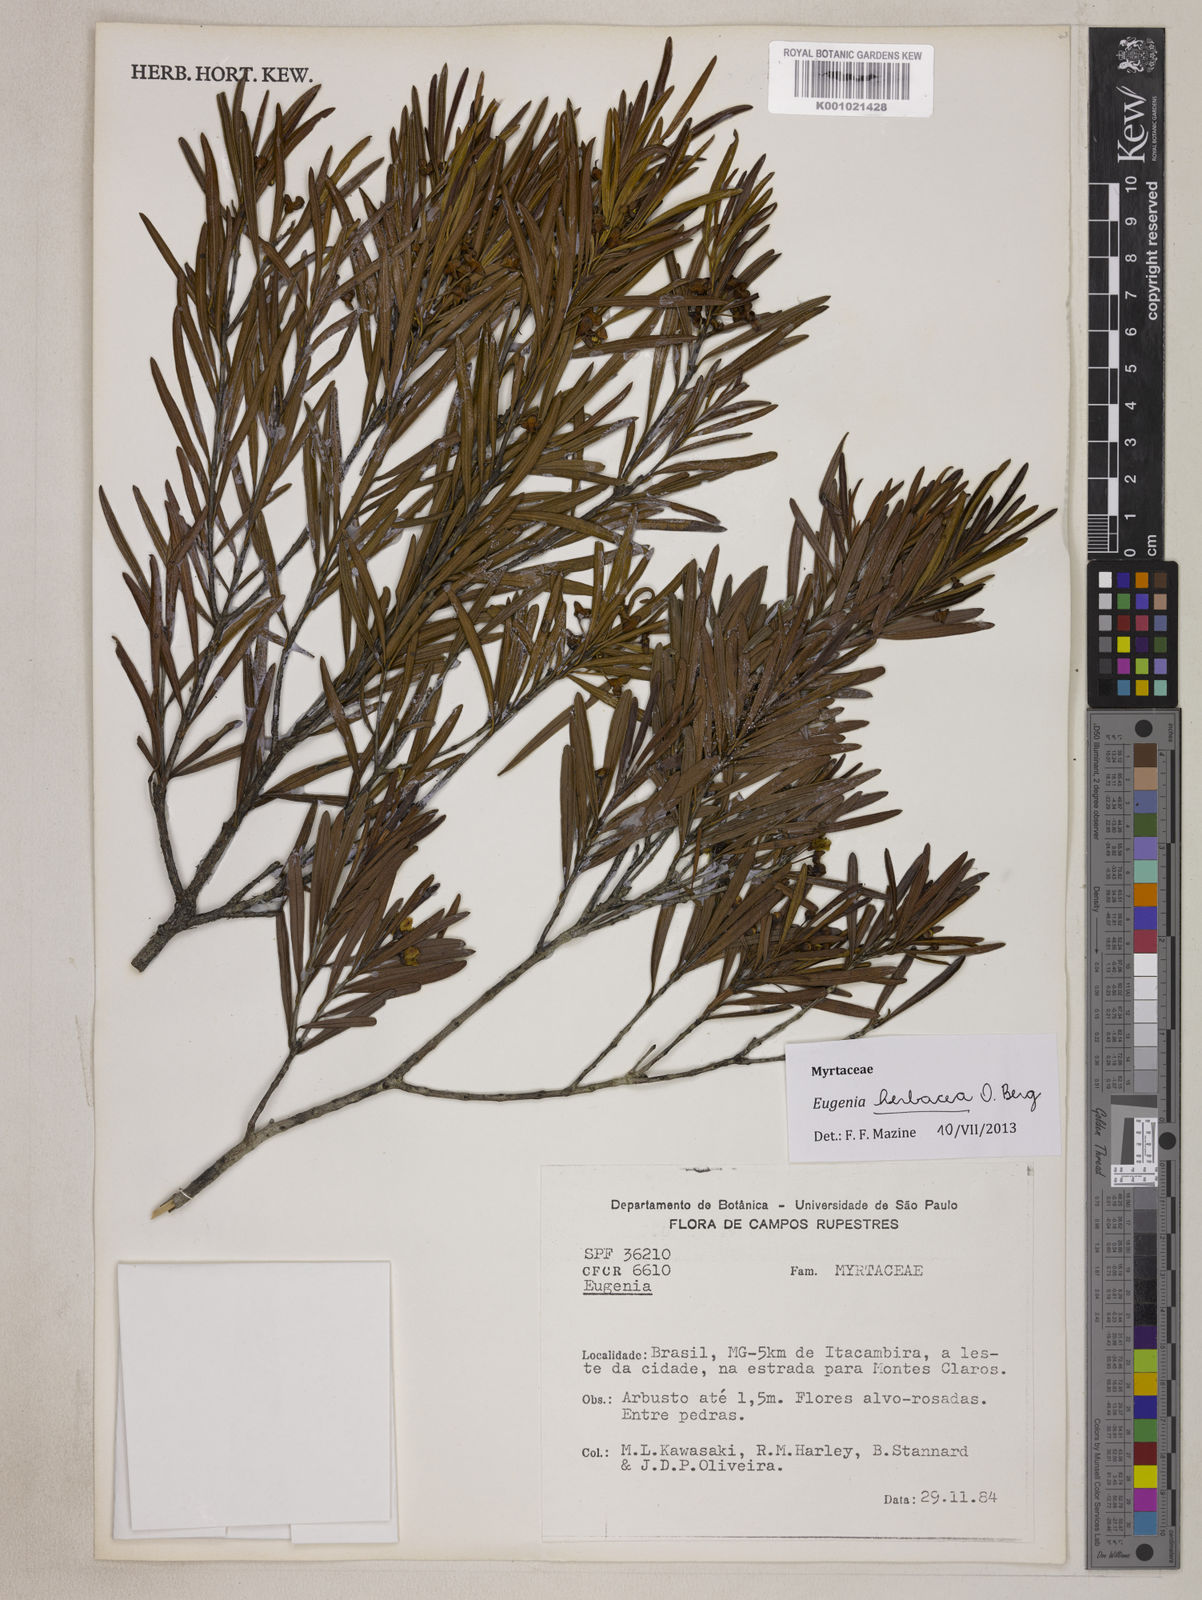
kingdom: Plantae
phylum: Tracheophyta
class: Magnoliopsida
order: Myrtales
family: Myrtaceae
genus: Eugenia
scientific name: Eugenia herbacea
